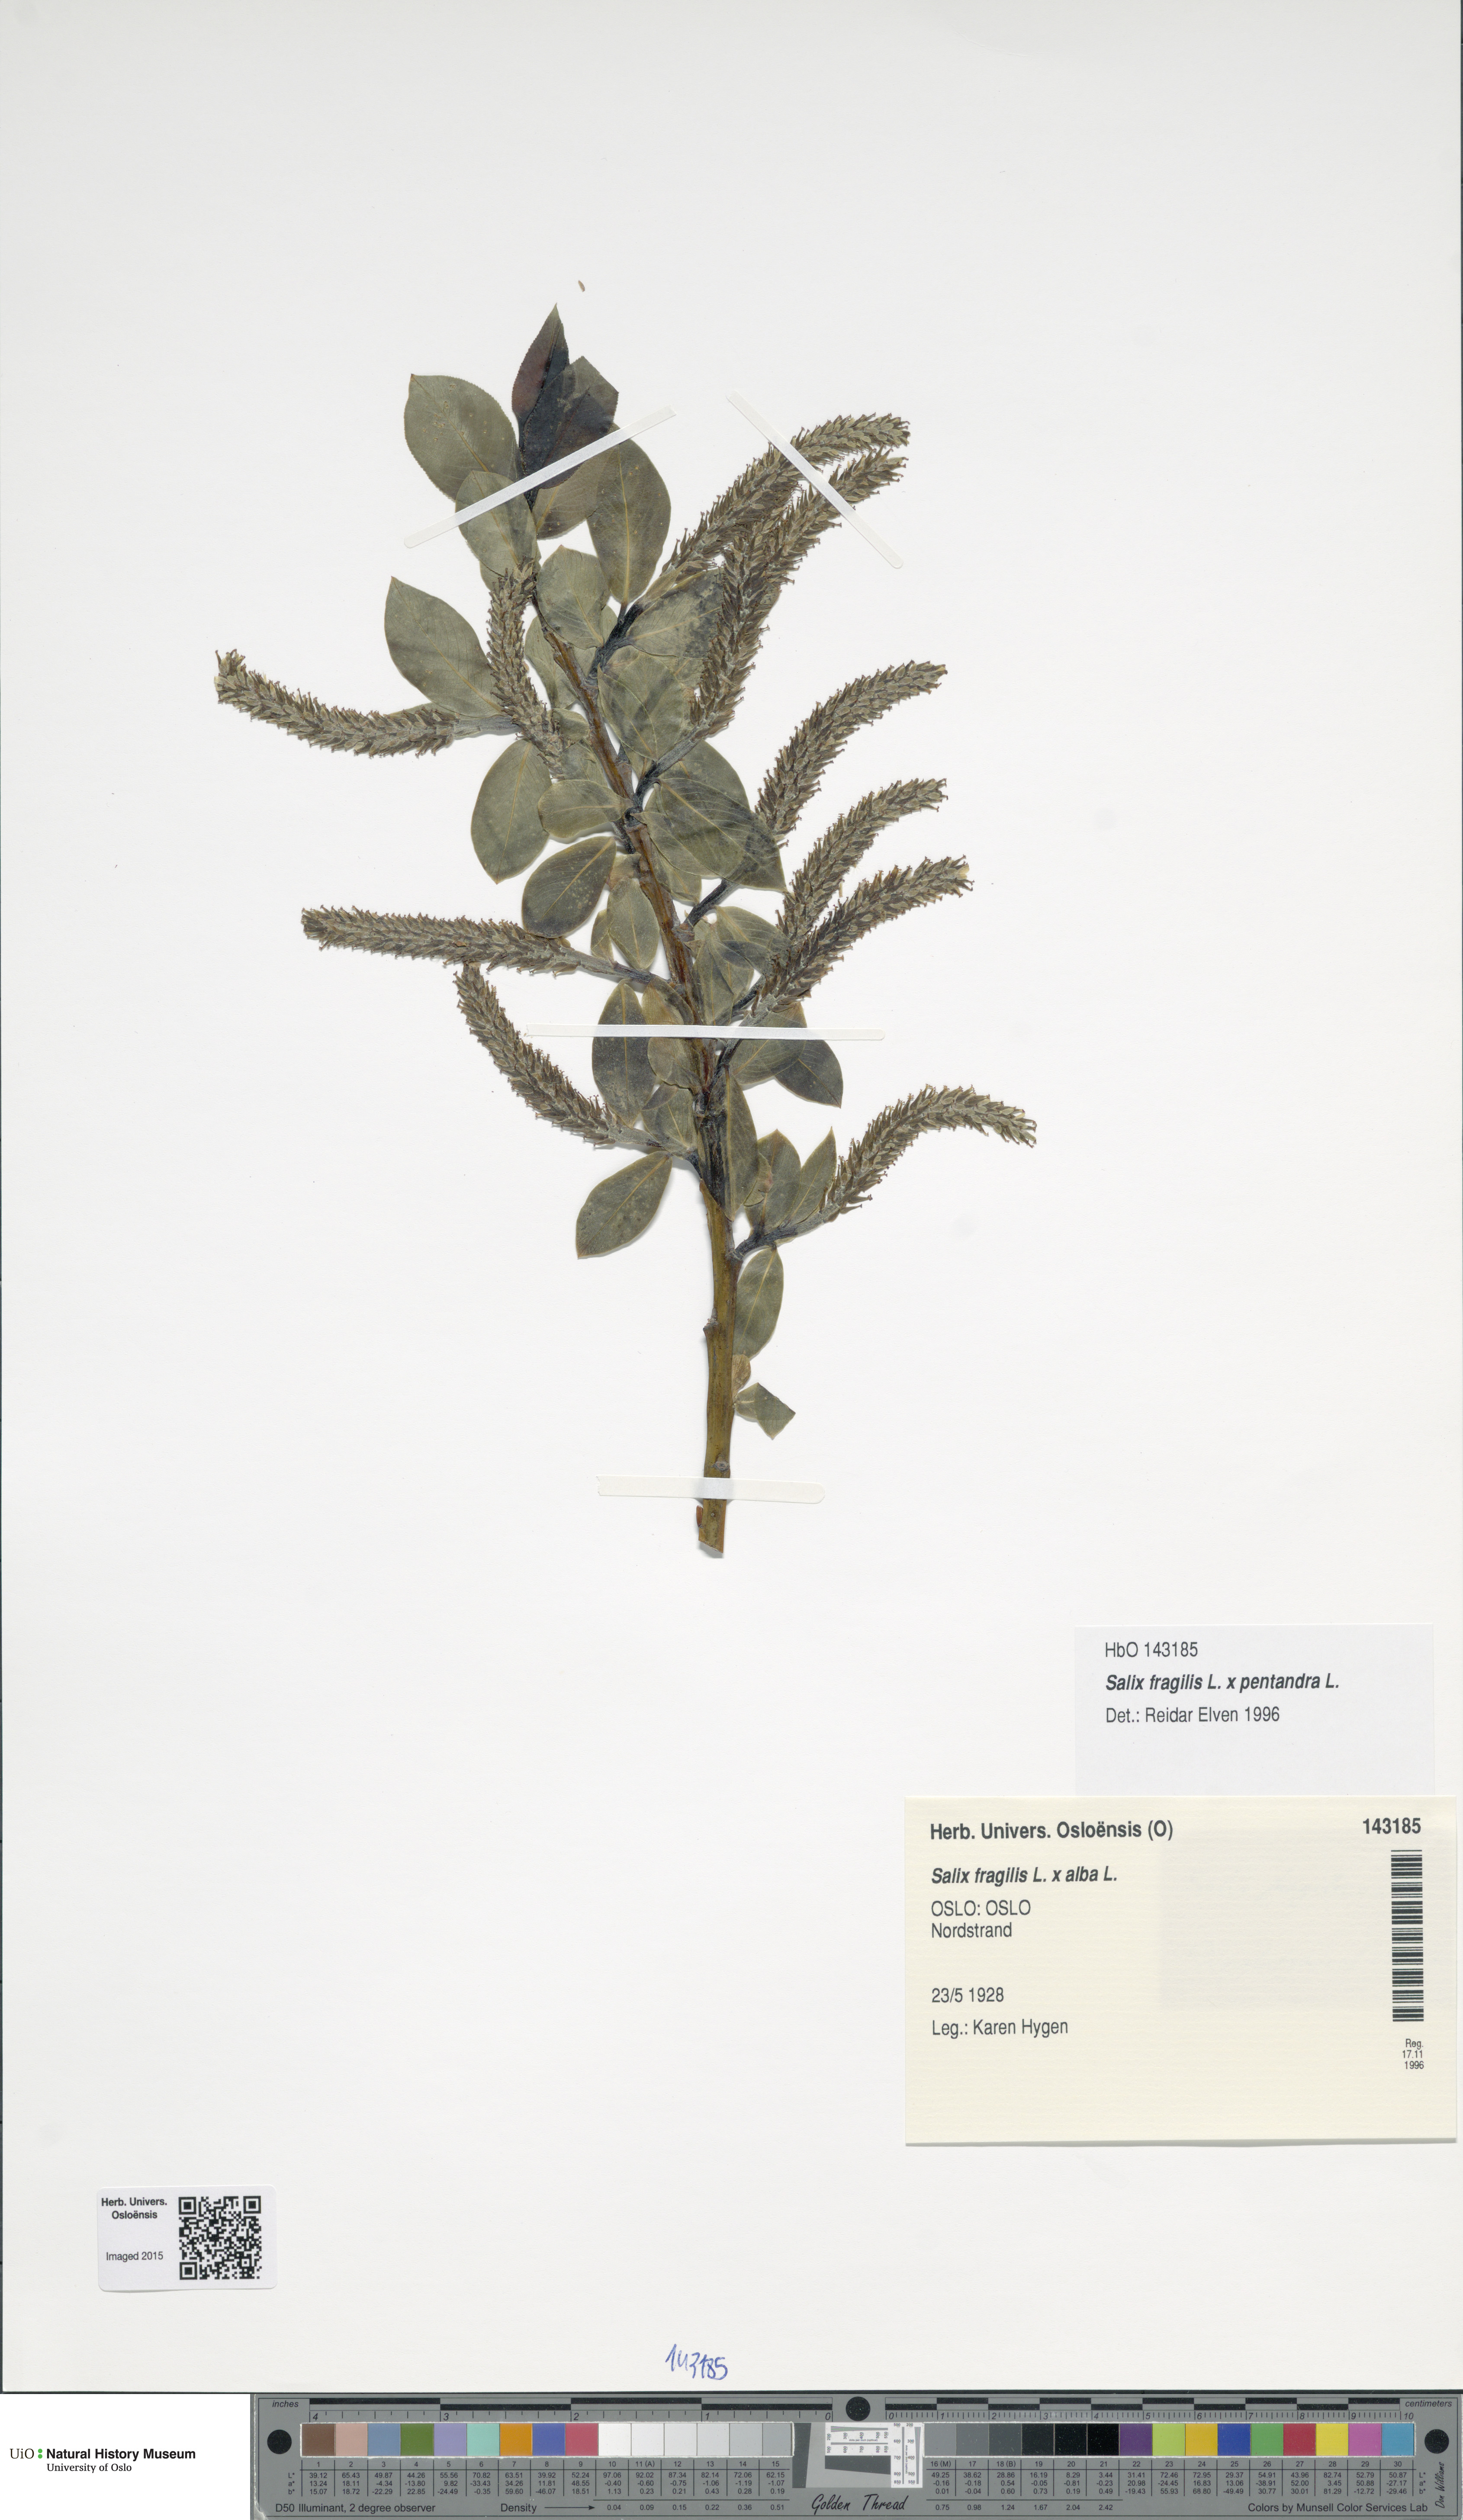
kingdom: Plantae
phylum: Tracheophyta
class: Magnoliopsida
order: Malpighiales
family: Salicaceae
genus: Salix
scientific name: Salix
